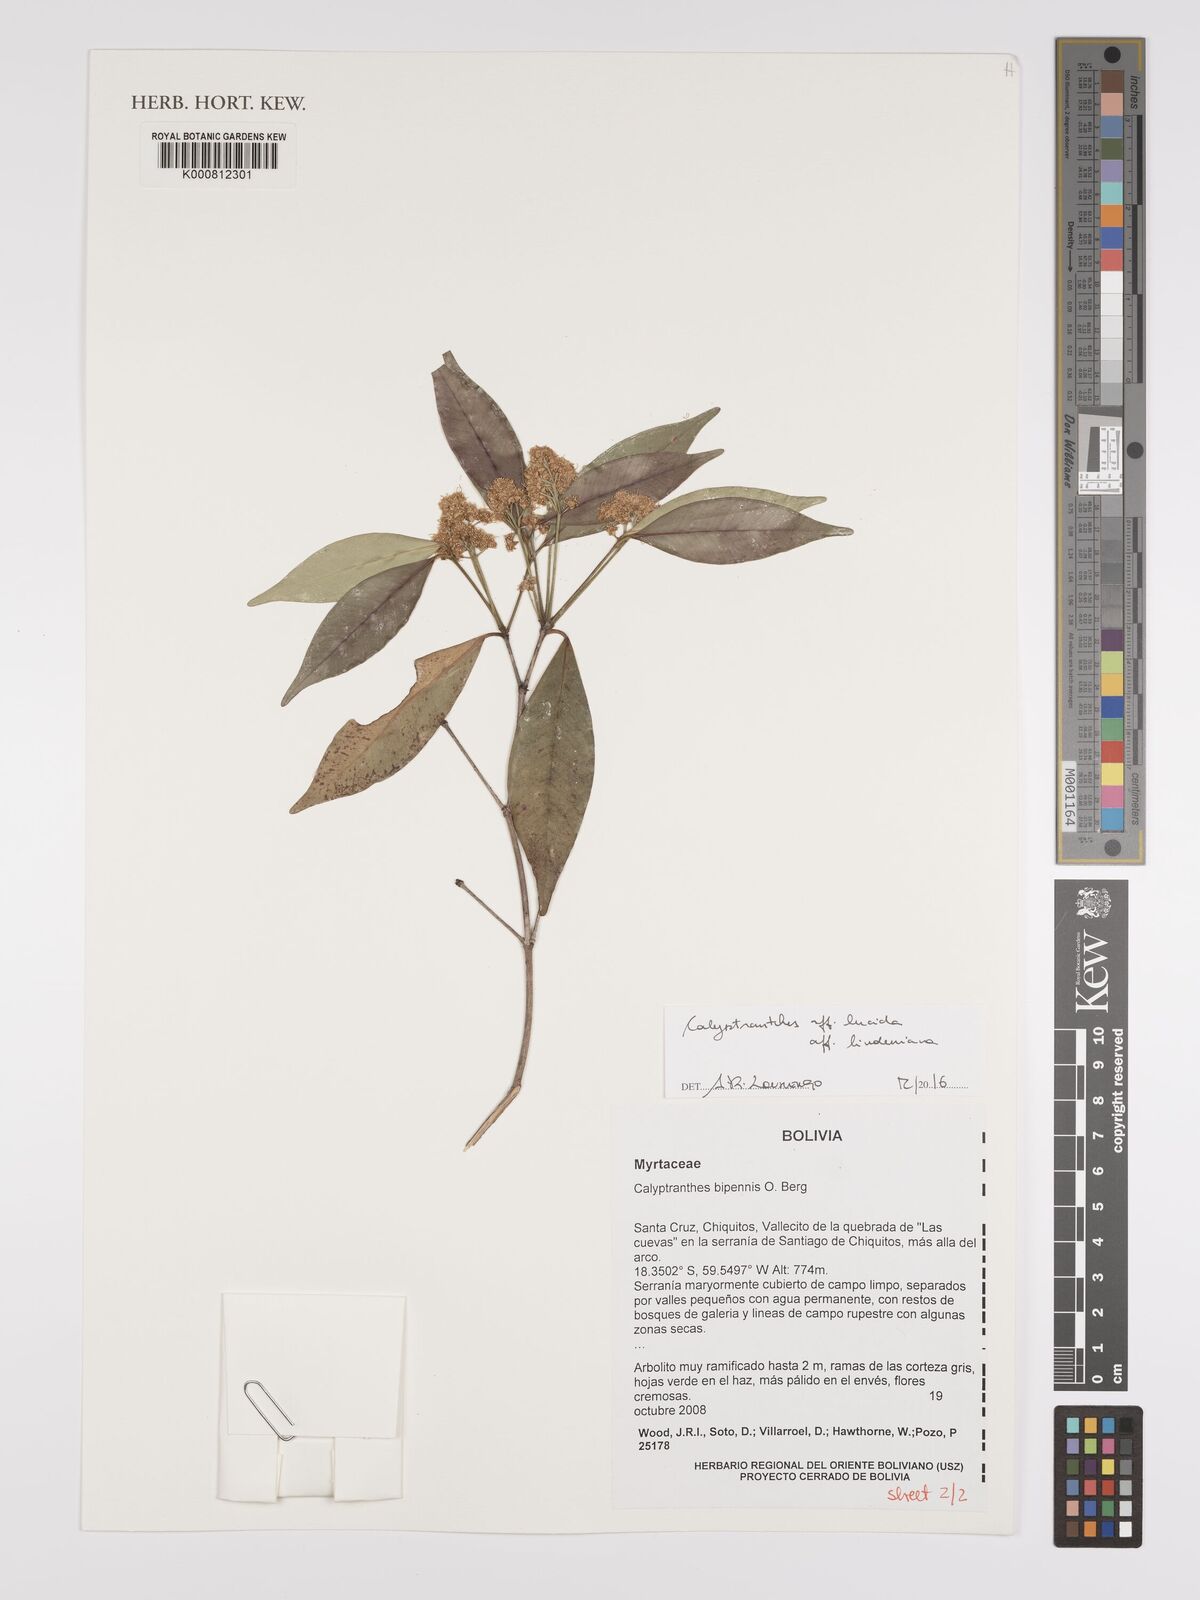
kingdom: Plantae
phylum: Tracheophyta
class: Magnoliopsida
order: Myrtales
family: Myrtaceae
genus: Eugenia
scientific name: Eugenia cristaensis
